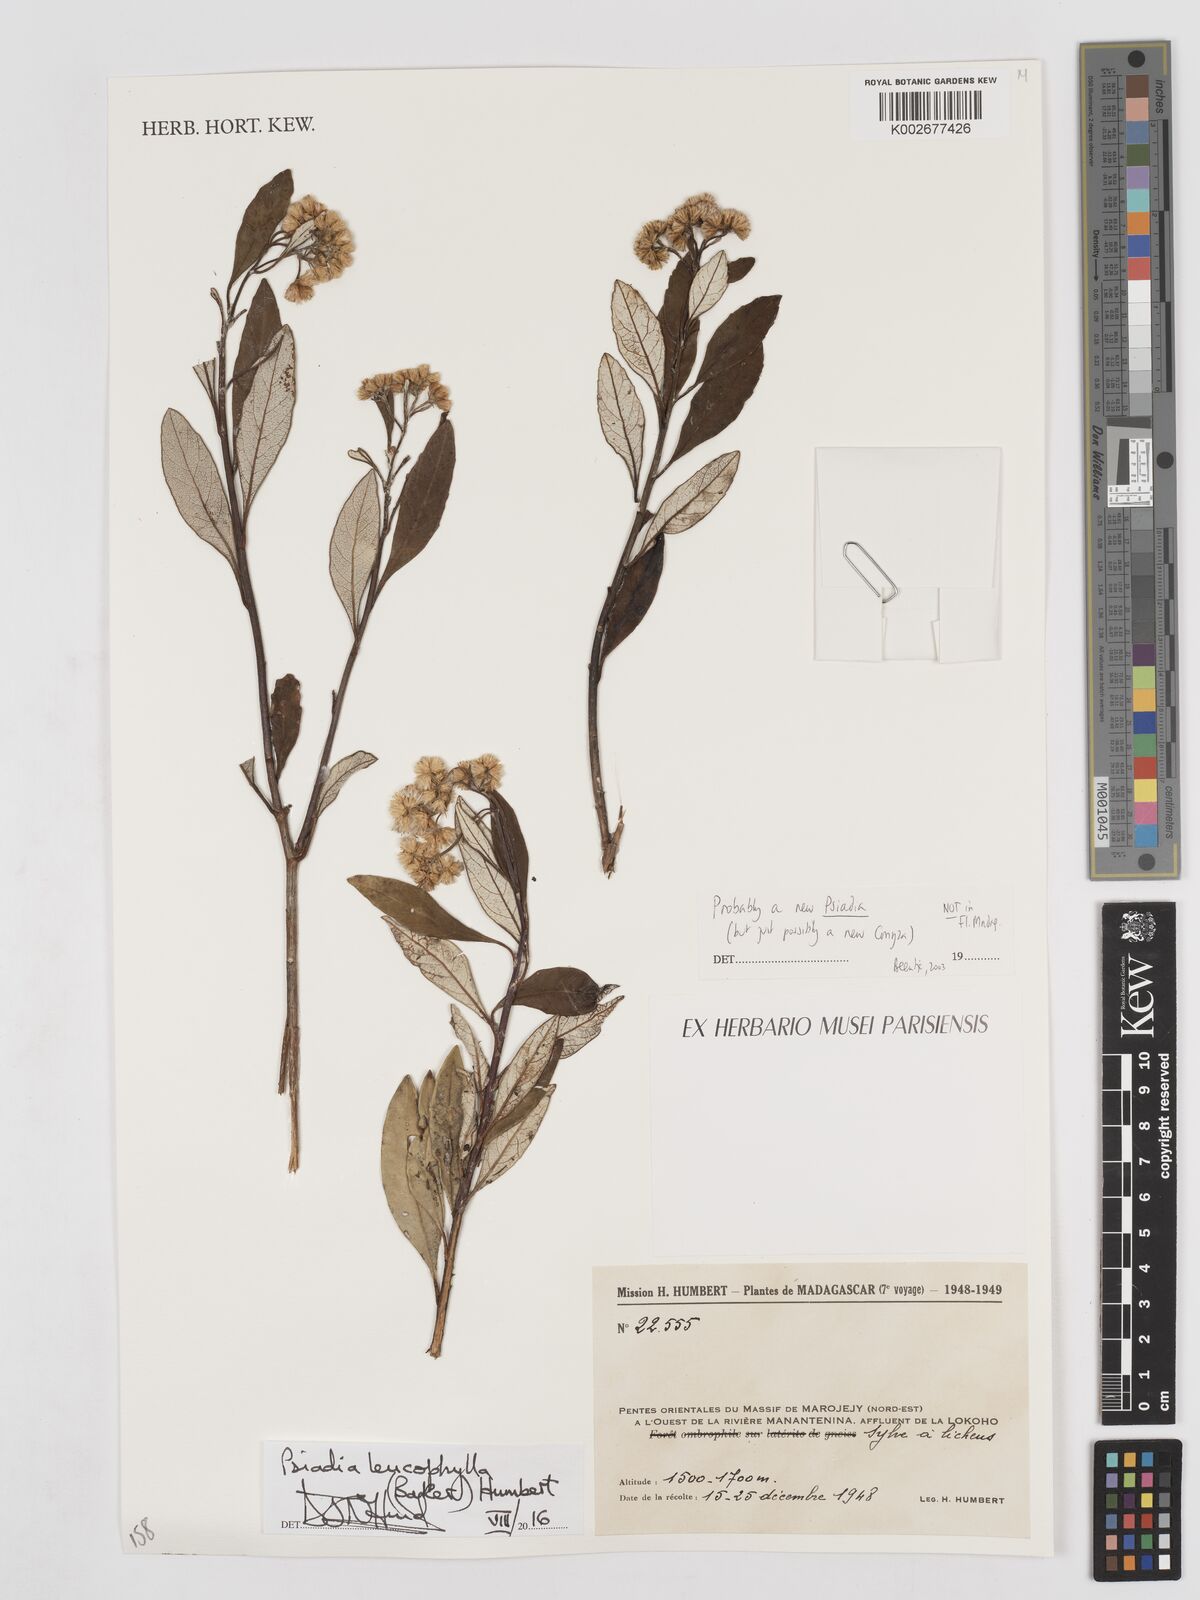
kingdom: Plantae
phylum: Tracheophyta
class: Magnoliopsida
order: Asterales
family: Asteraceae
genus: Psiadia
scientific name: Psiadia leucophylla
